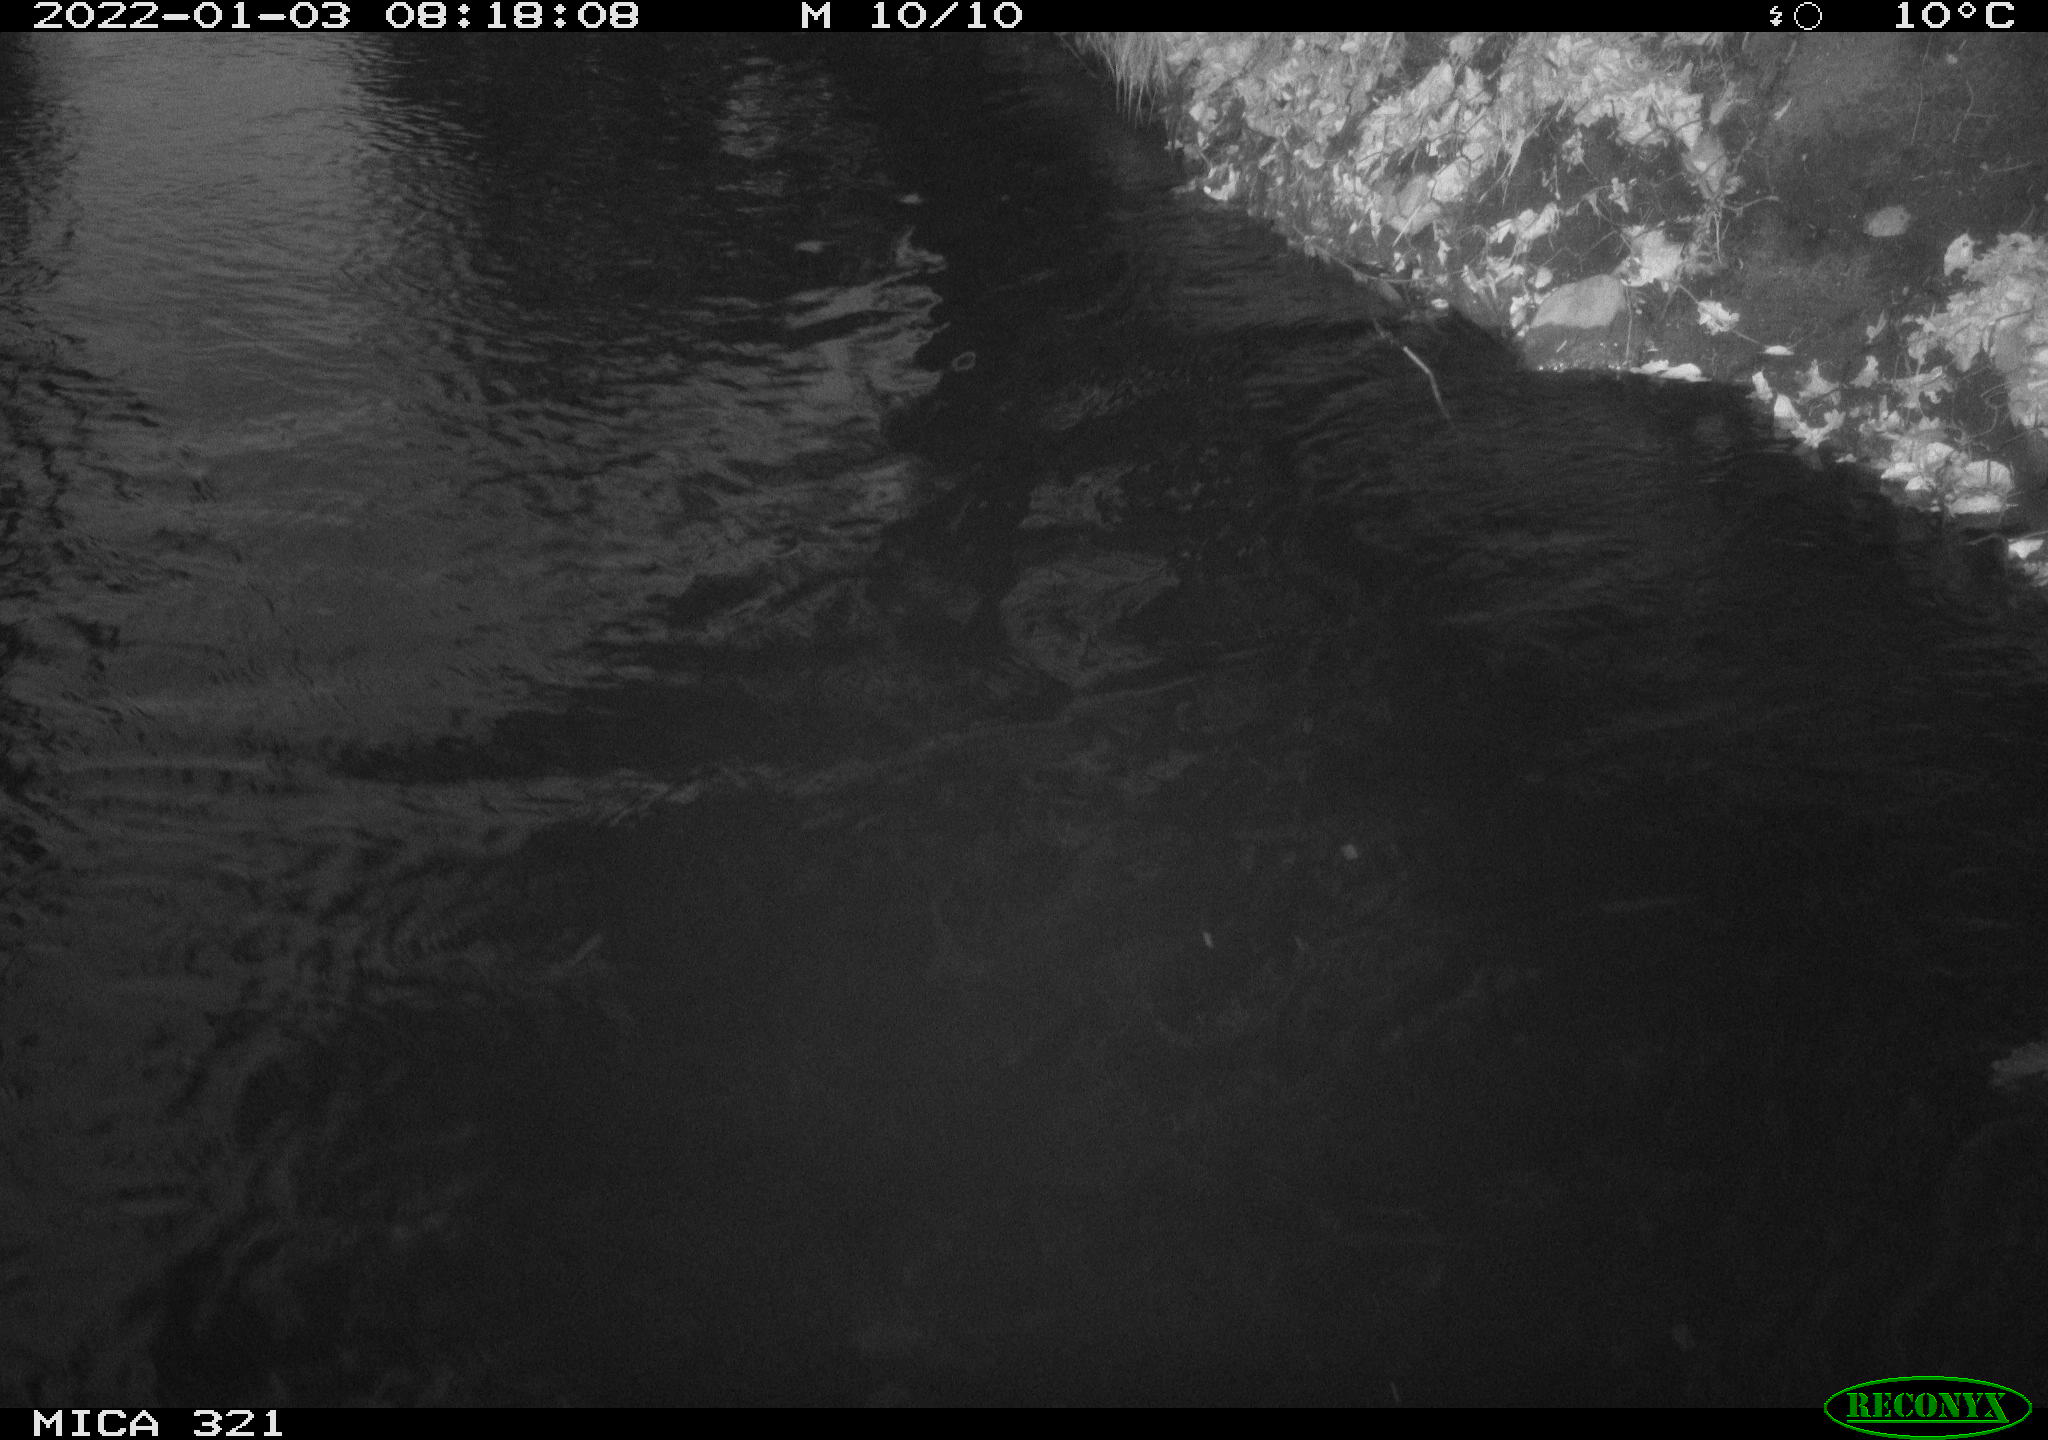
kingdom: Animalia
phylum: Chordata
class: Aves
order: Anseriformes
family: Anatidae
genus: Anas
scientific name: Anas platyrhynchos
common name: Mallard
